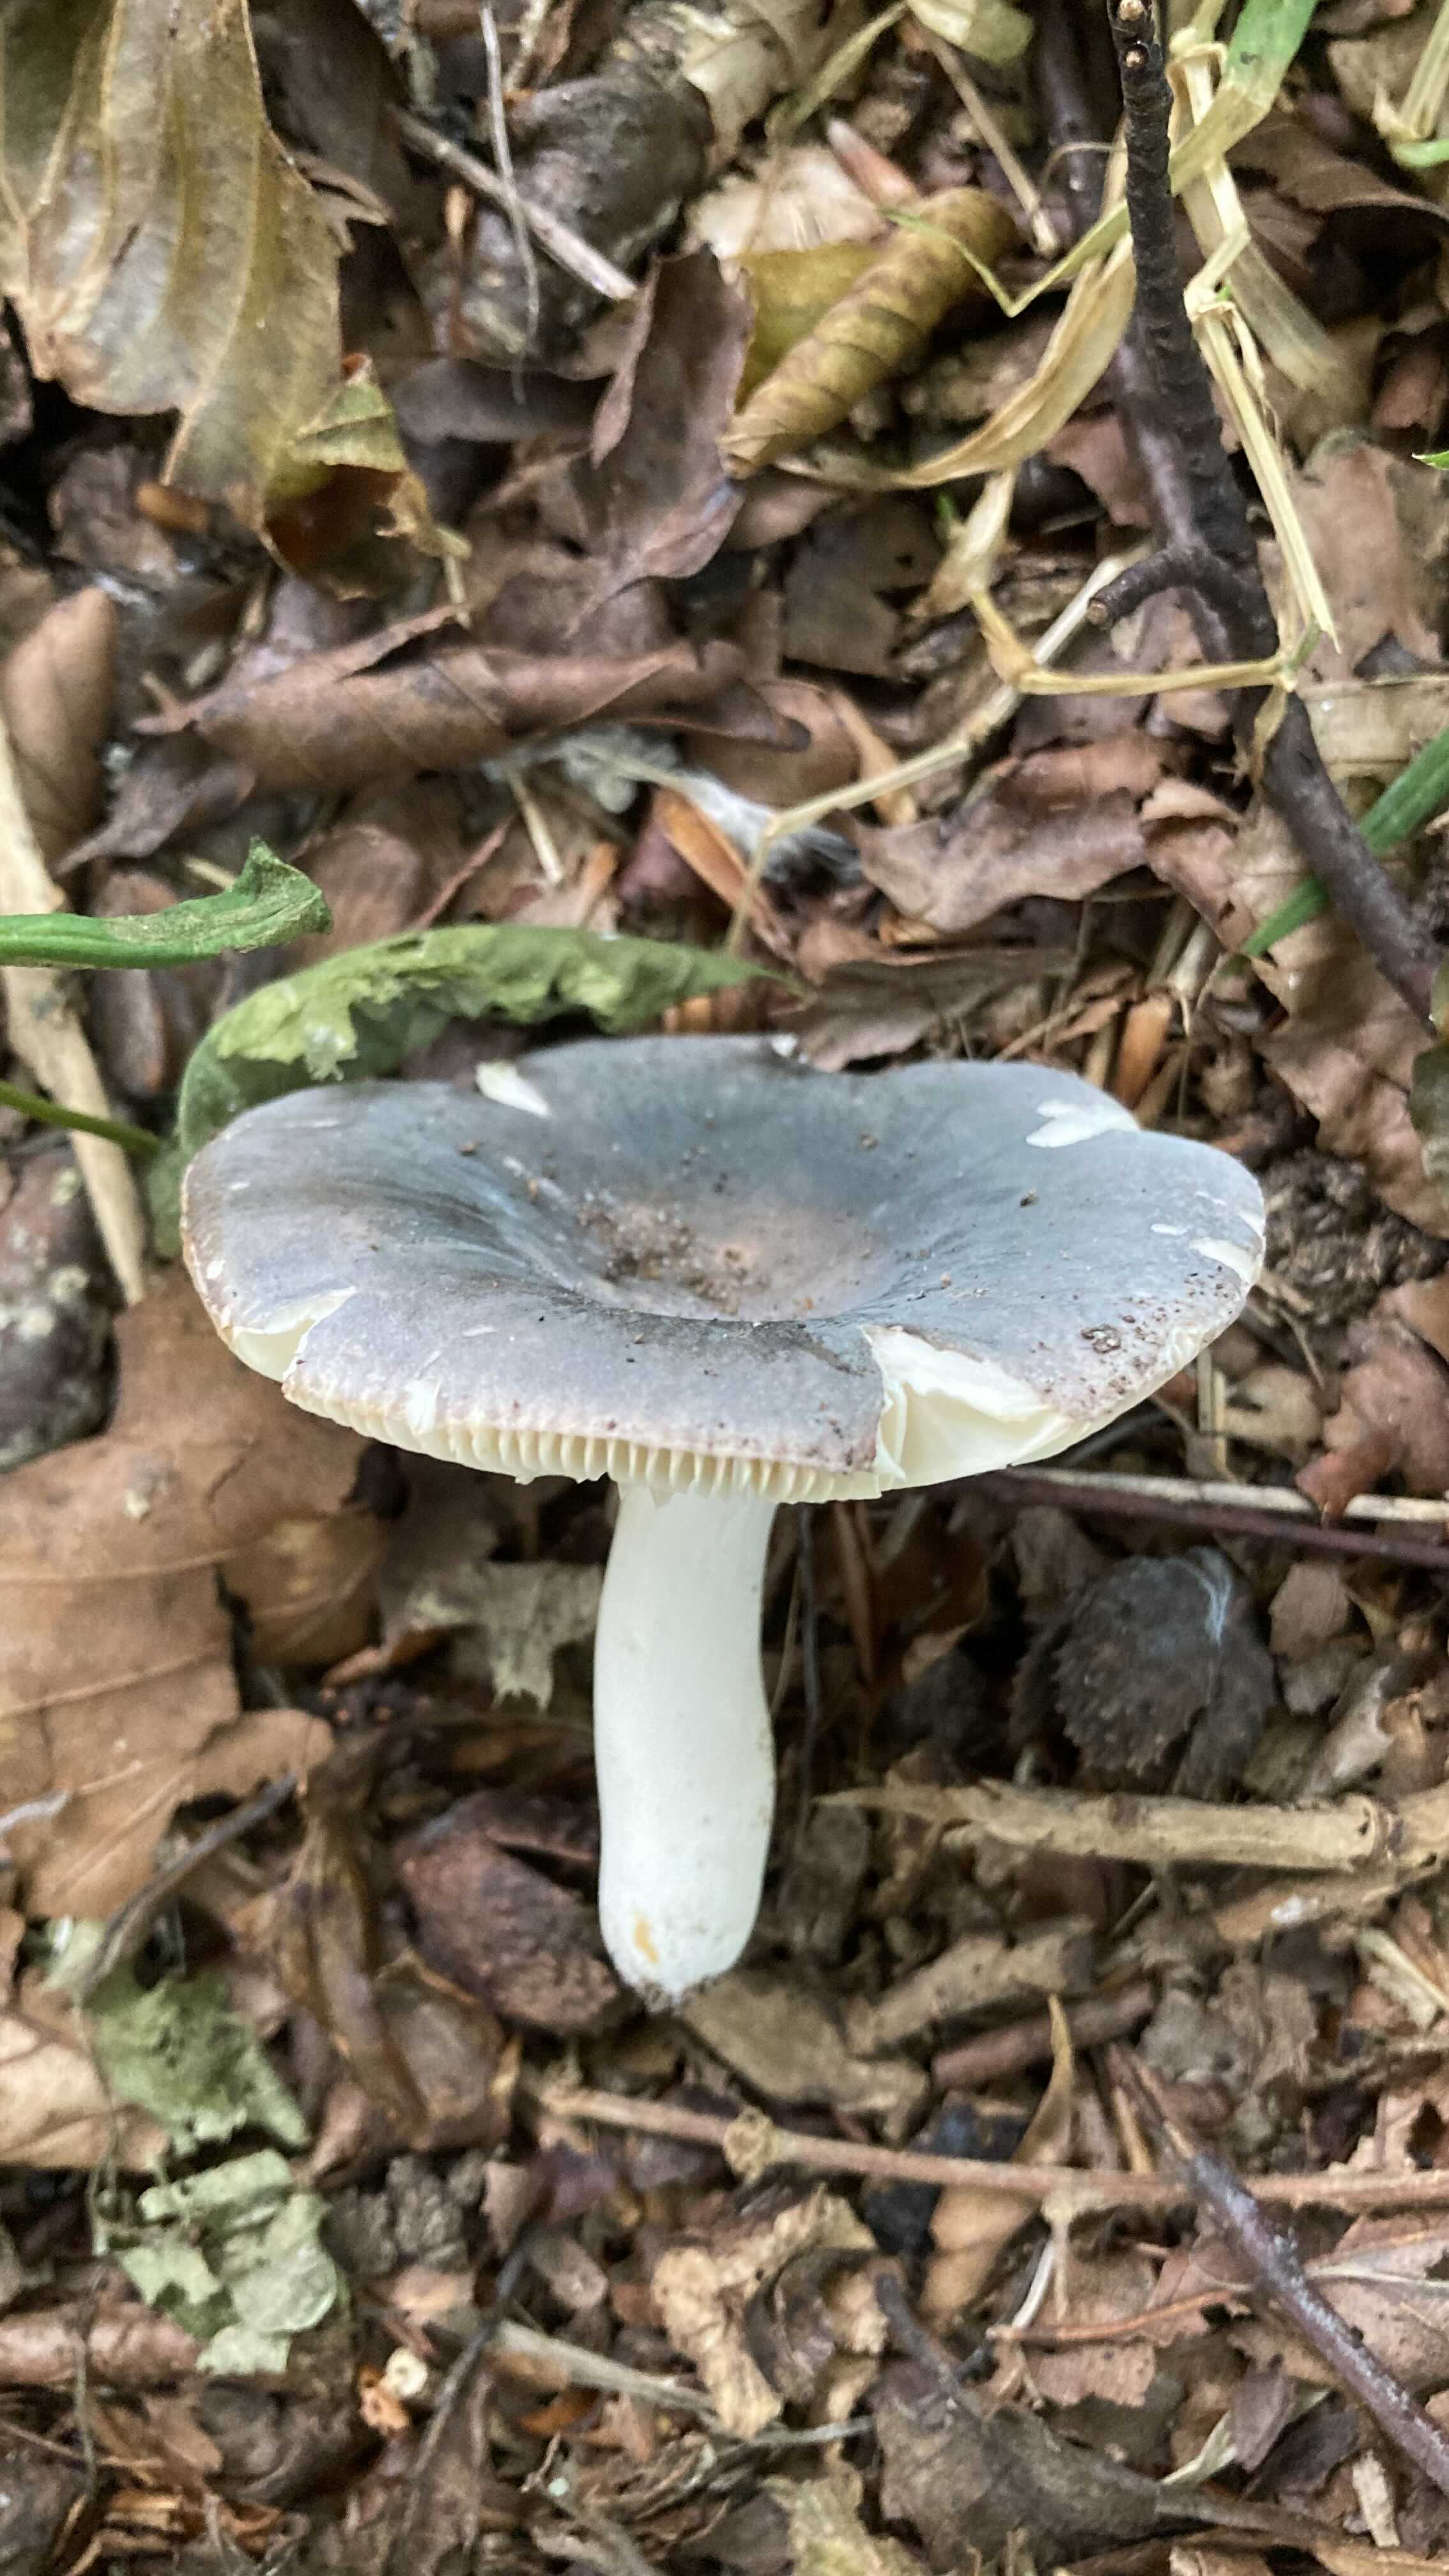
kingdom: Fungi
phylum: Basidiomycota
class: Agaricomycetes
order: Russulales
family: Russulaceae
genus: Russula
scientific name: Russula parazurea
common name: blågrå skørhat
